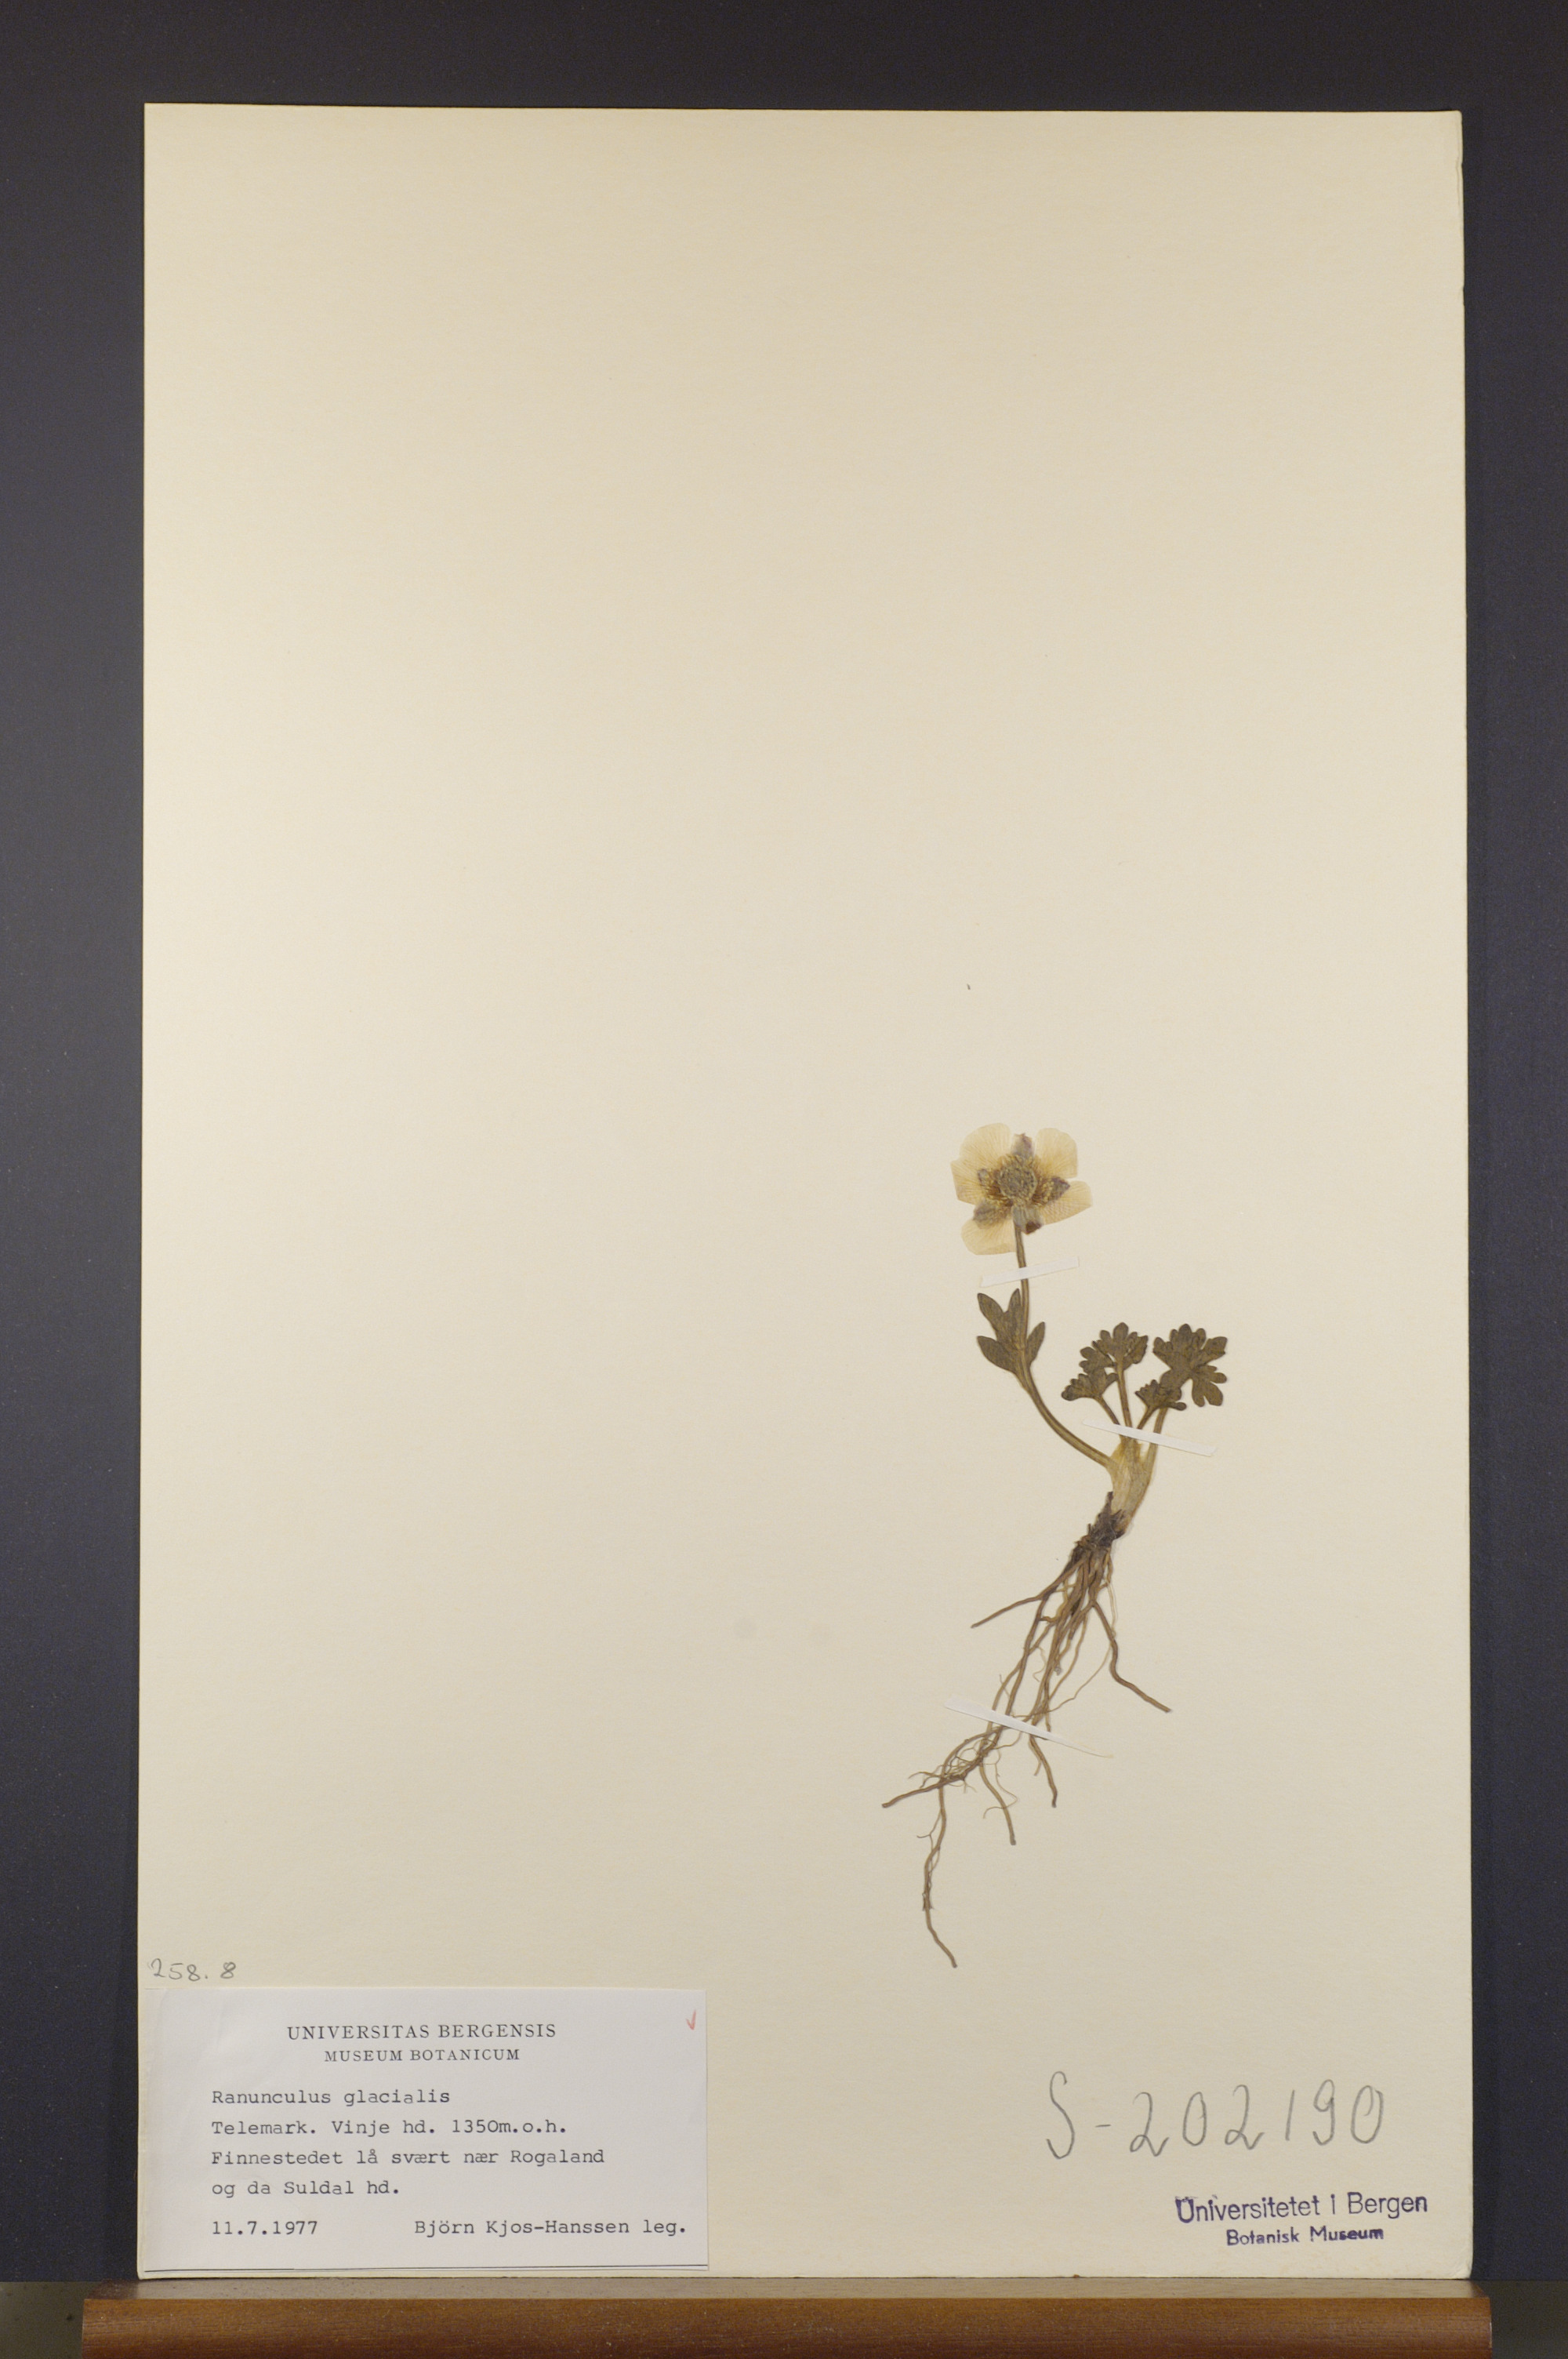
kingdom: Plantae
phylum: Tracheophyta
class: Magnoliopsida
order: Ranunculales
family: Ranunculaceae
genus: Ranunculus
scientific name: Ranunculus glacialis
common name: Glacier buttercup
